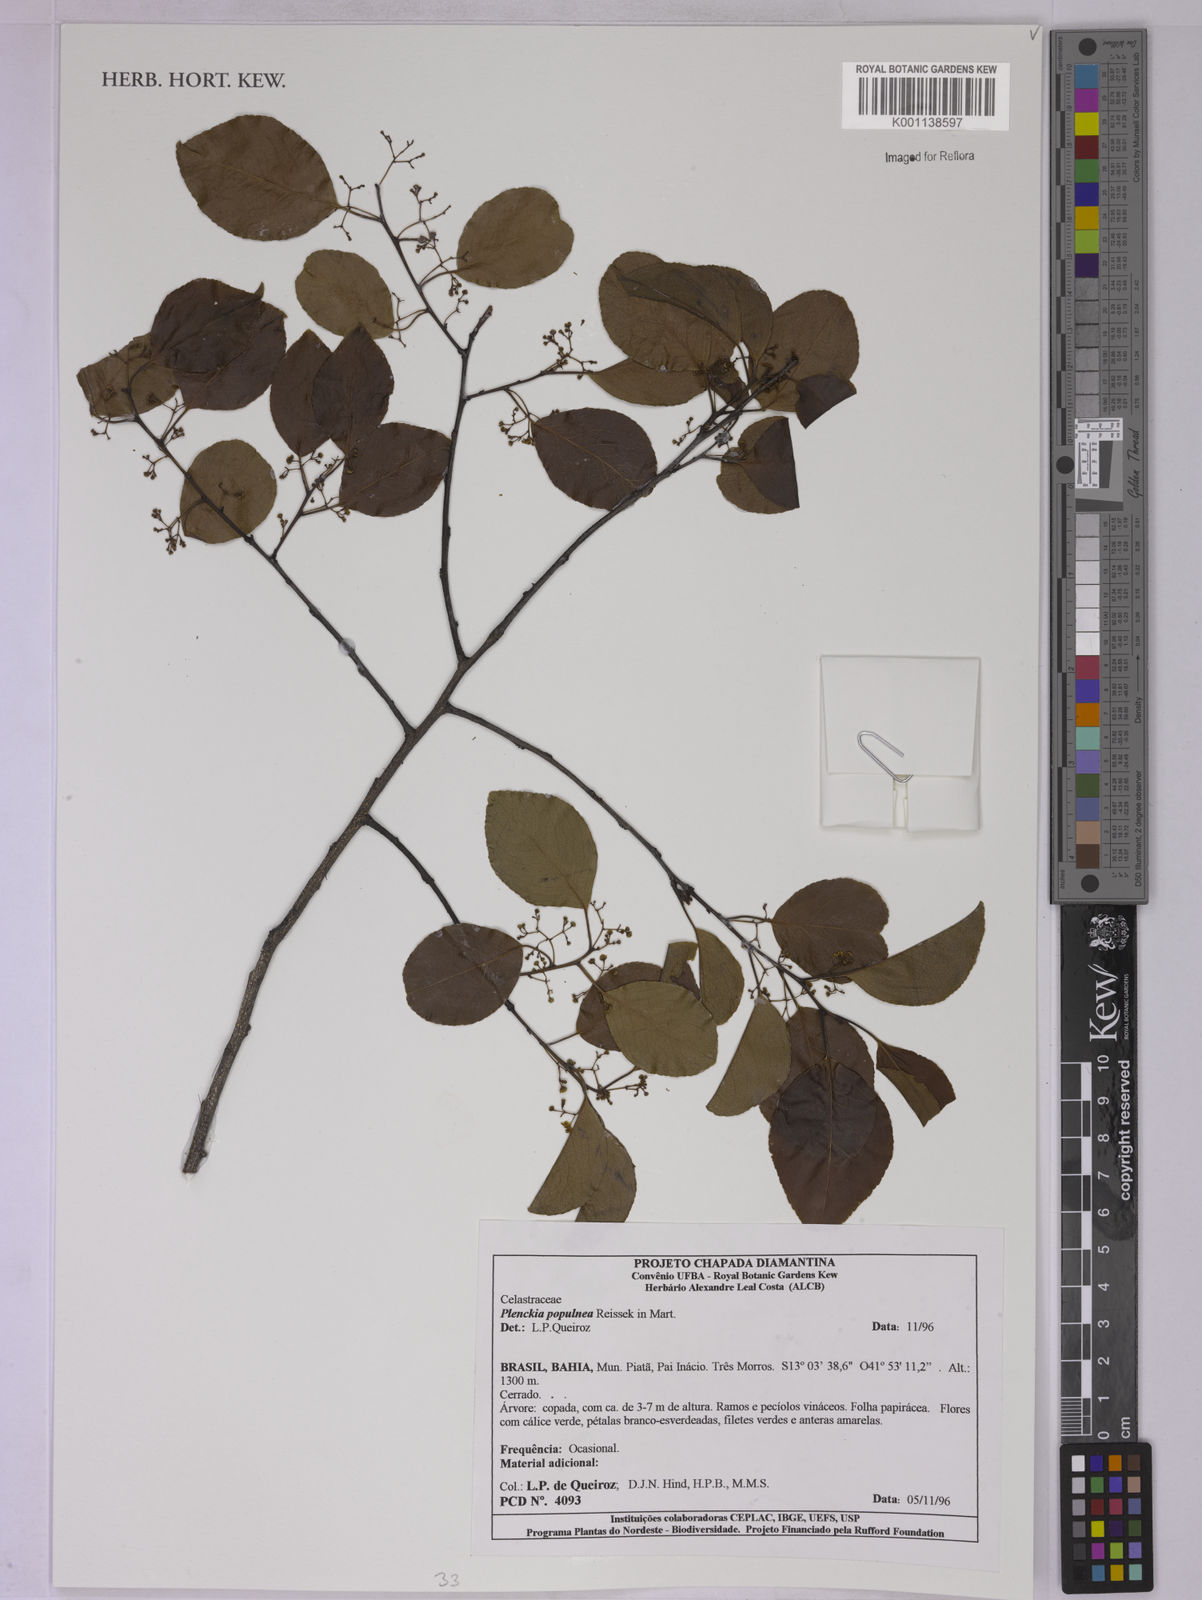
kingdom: Plantae
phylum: Tracheophyta
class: Magnoliopsida
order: Celastrales
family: Celastraceae
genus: Plenckia
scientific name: Plenckia populnea
